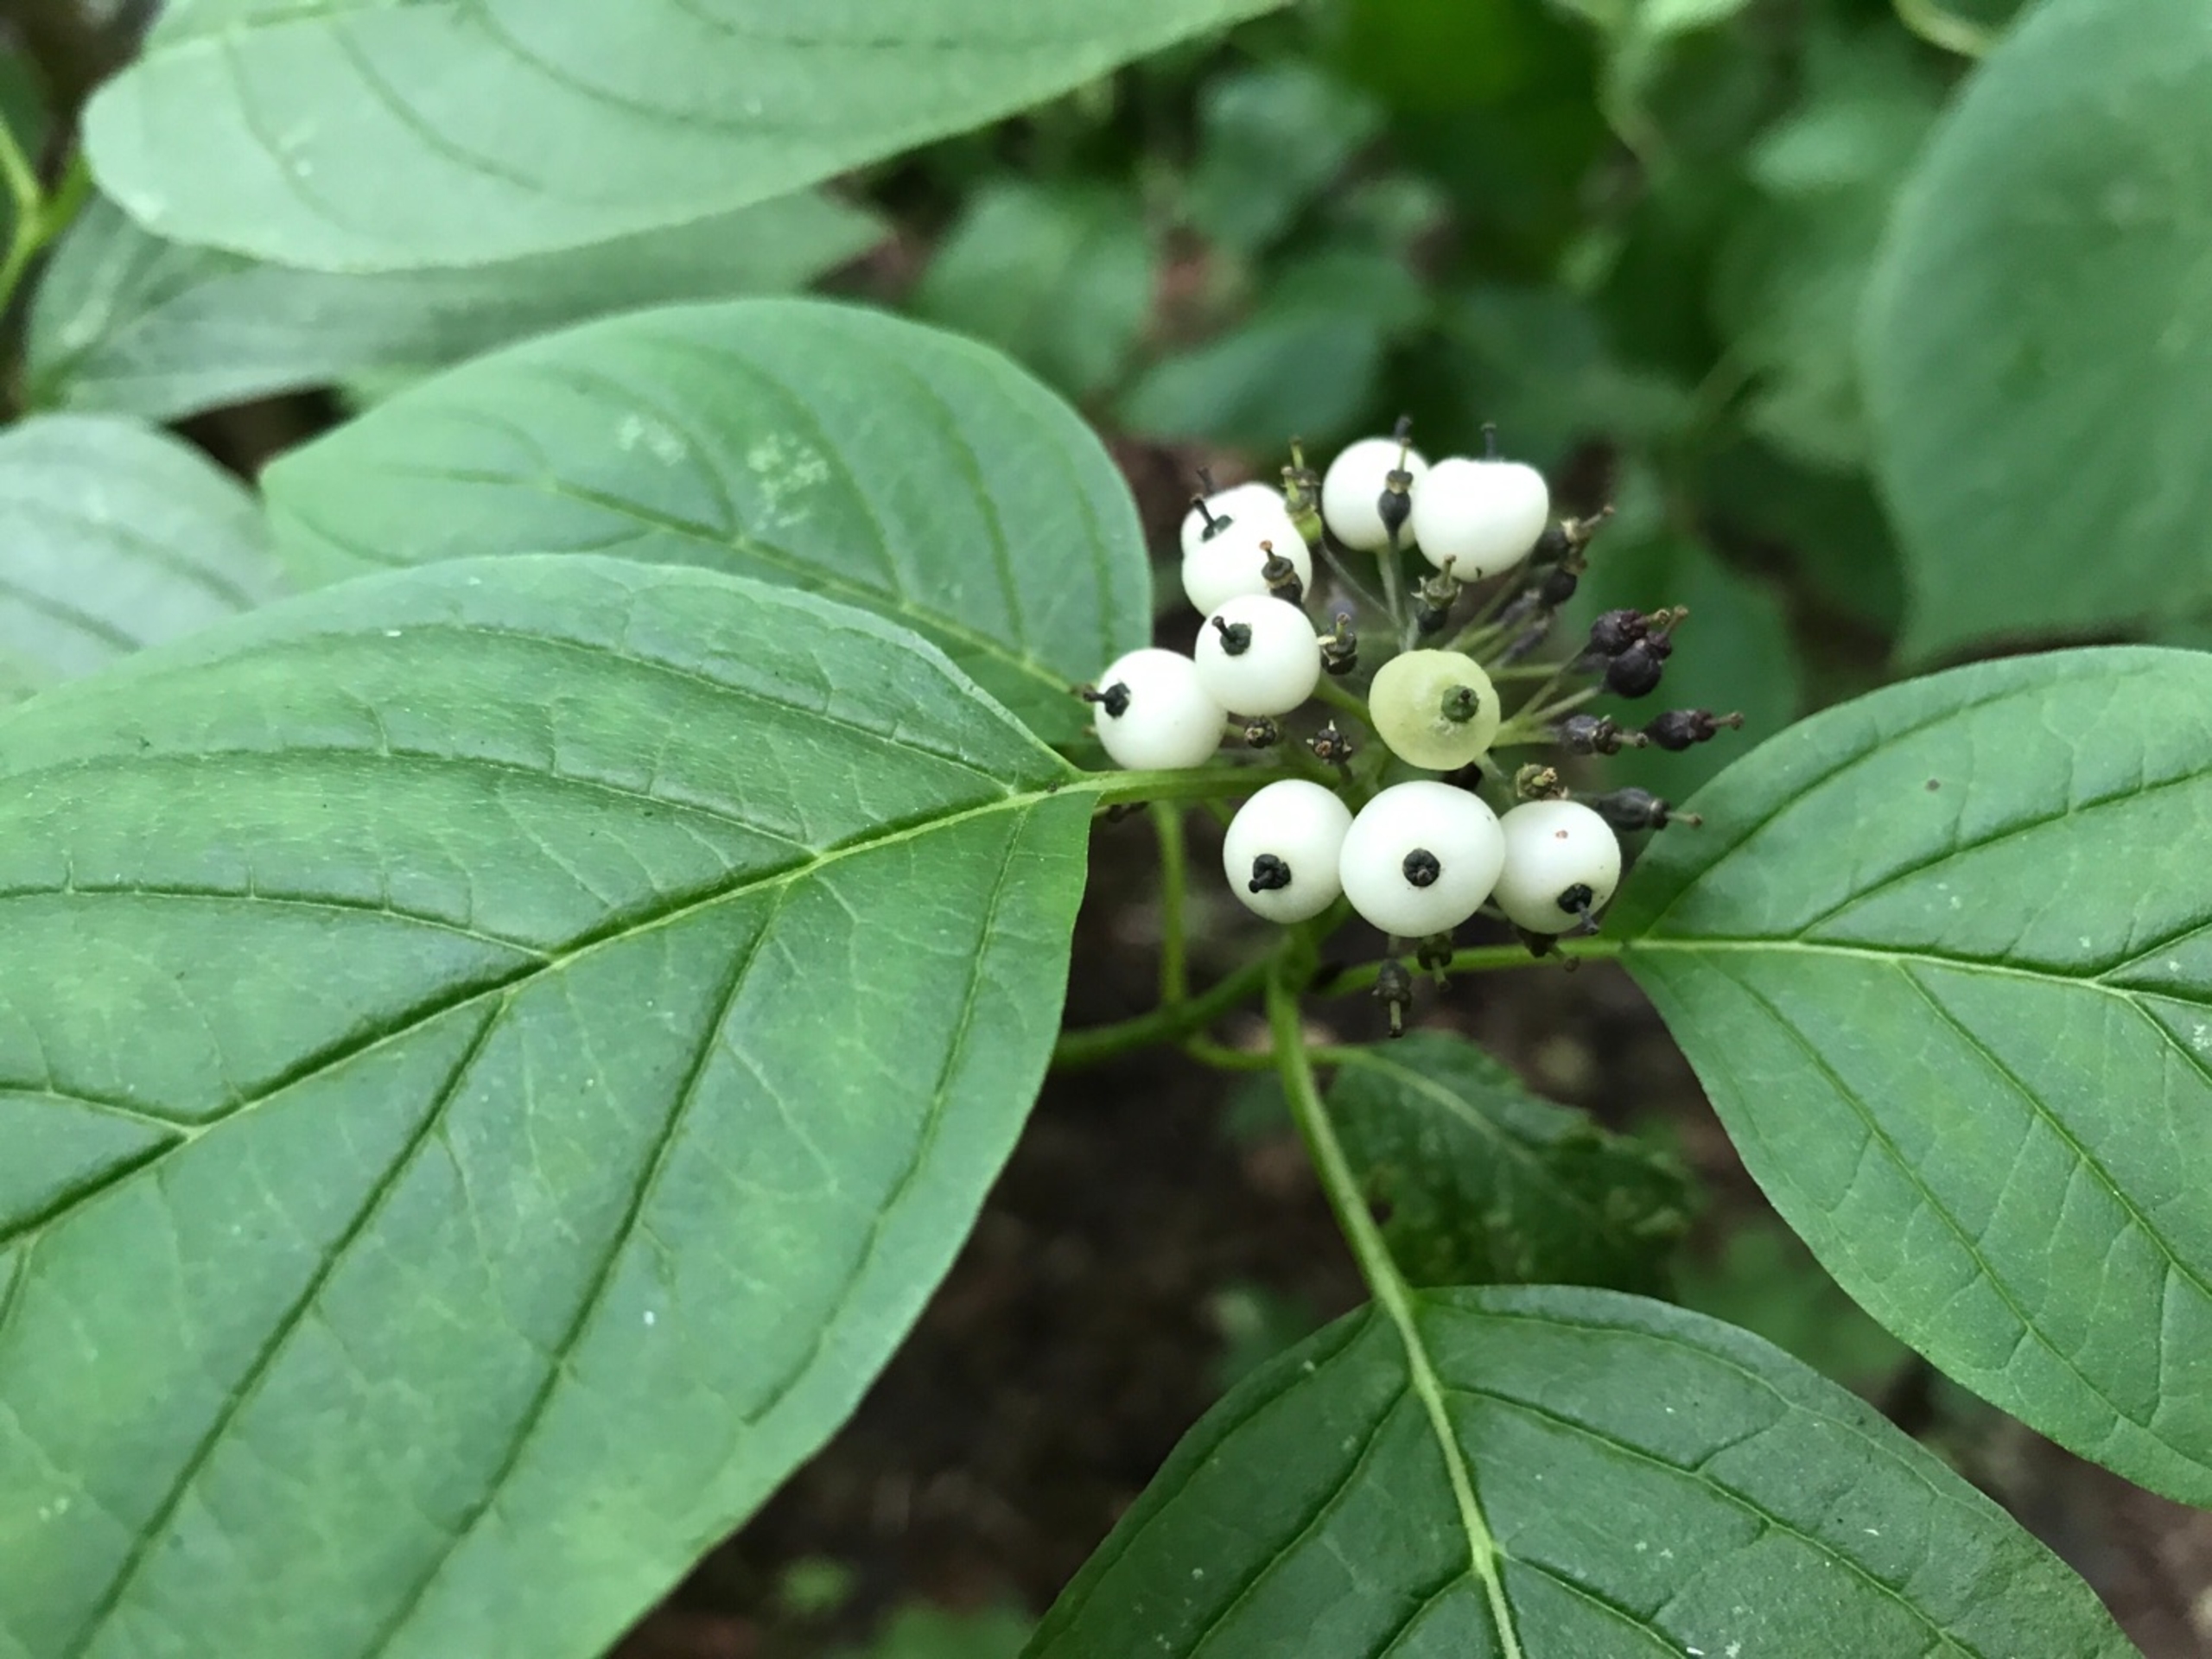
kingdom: Plantae
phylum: Tracheophyta
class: Magnoliopsida
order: Cornales
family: Cornaceae
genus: Cornus
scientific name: Cornus sericea
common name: Krybende kornel
